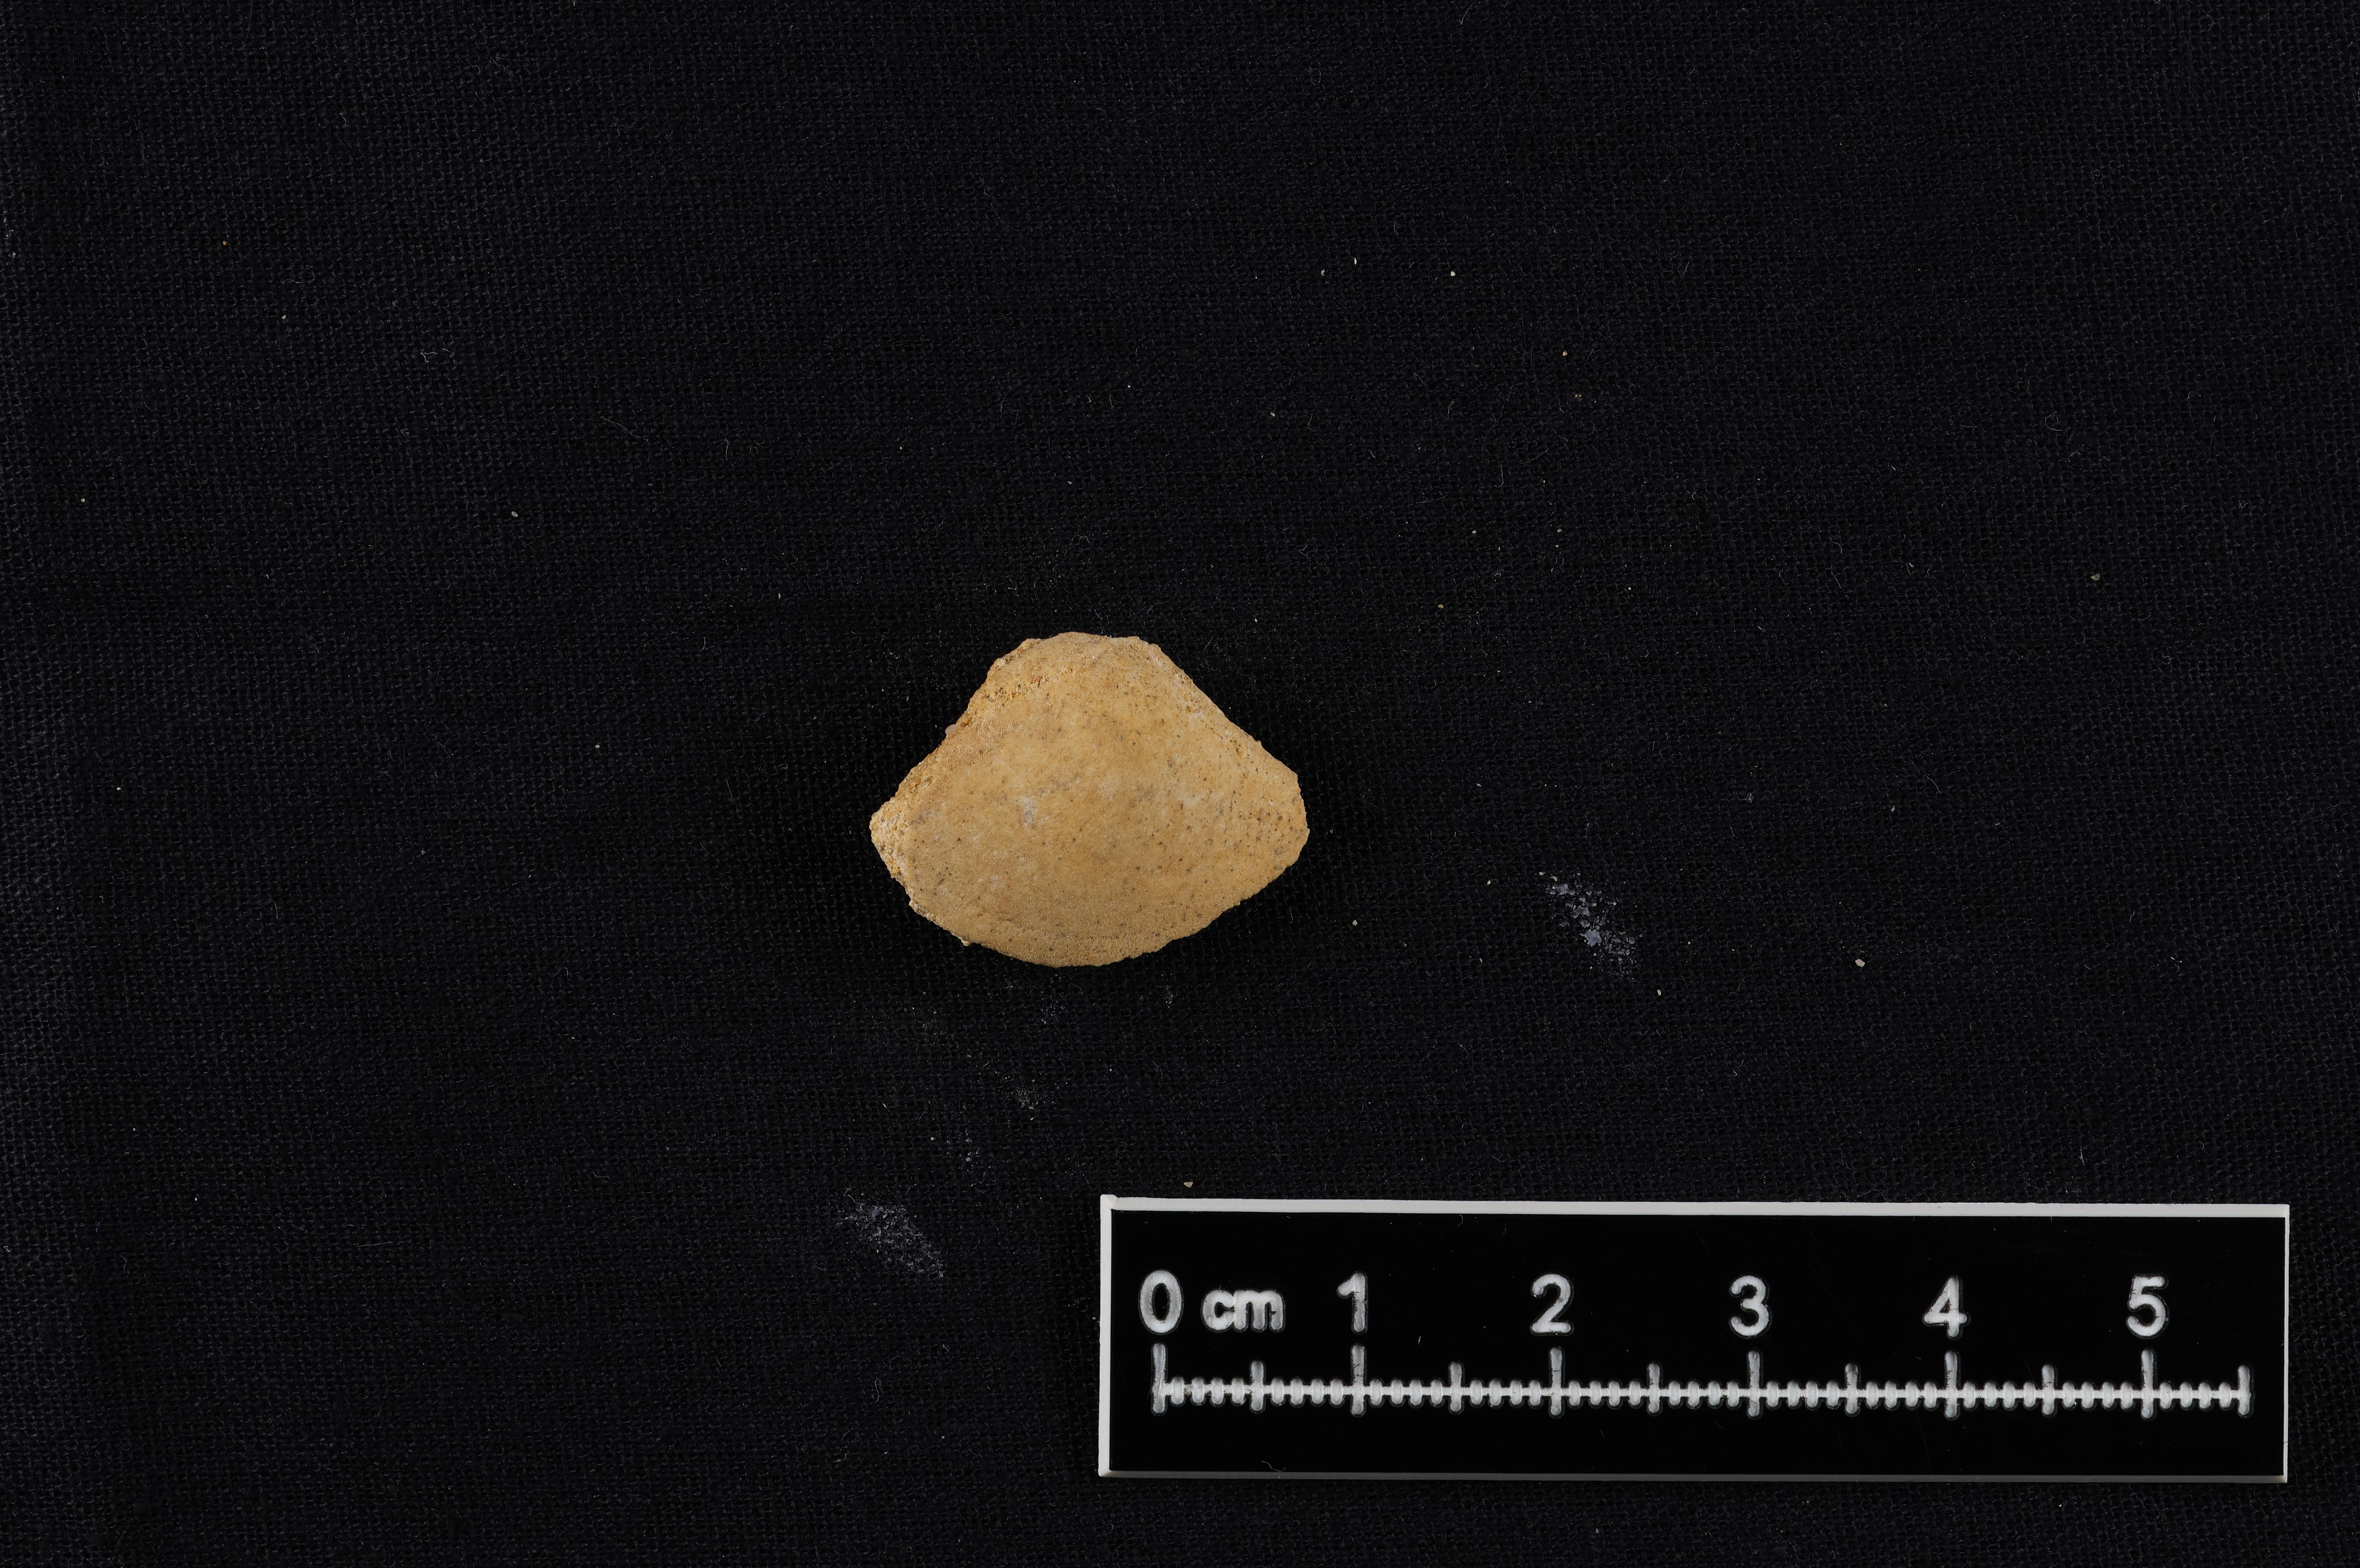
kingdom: Animalia
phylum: Mollusca
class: Bivalvia
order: Cardiida
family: Tancrediidae
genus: Tancredia
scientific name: Tancredia
